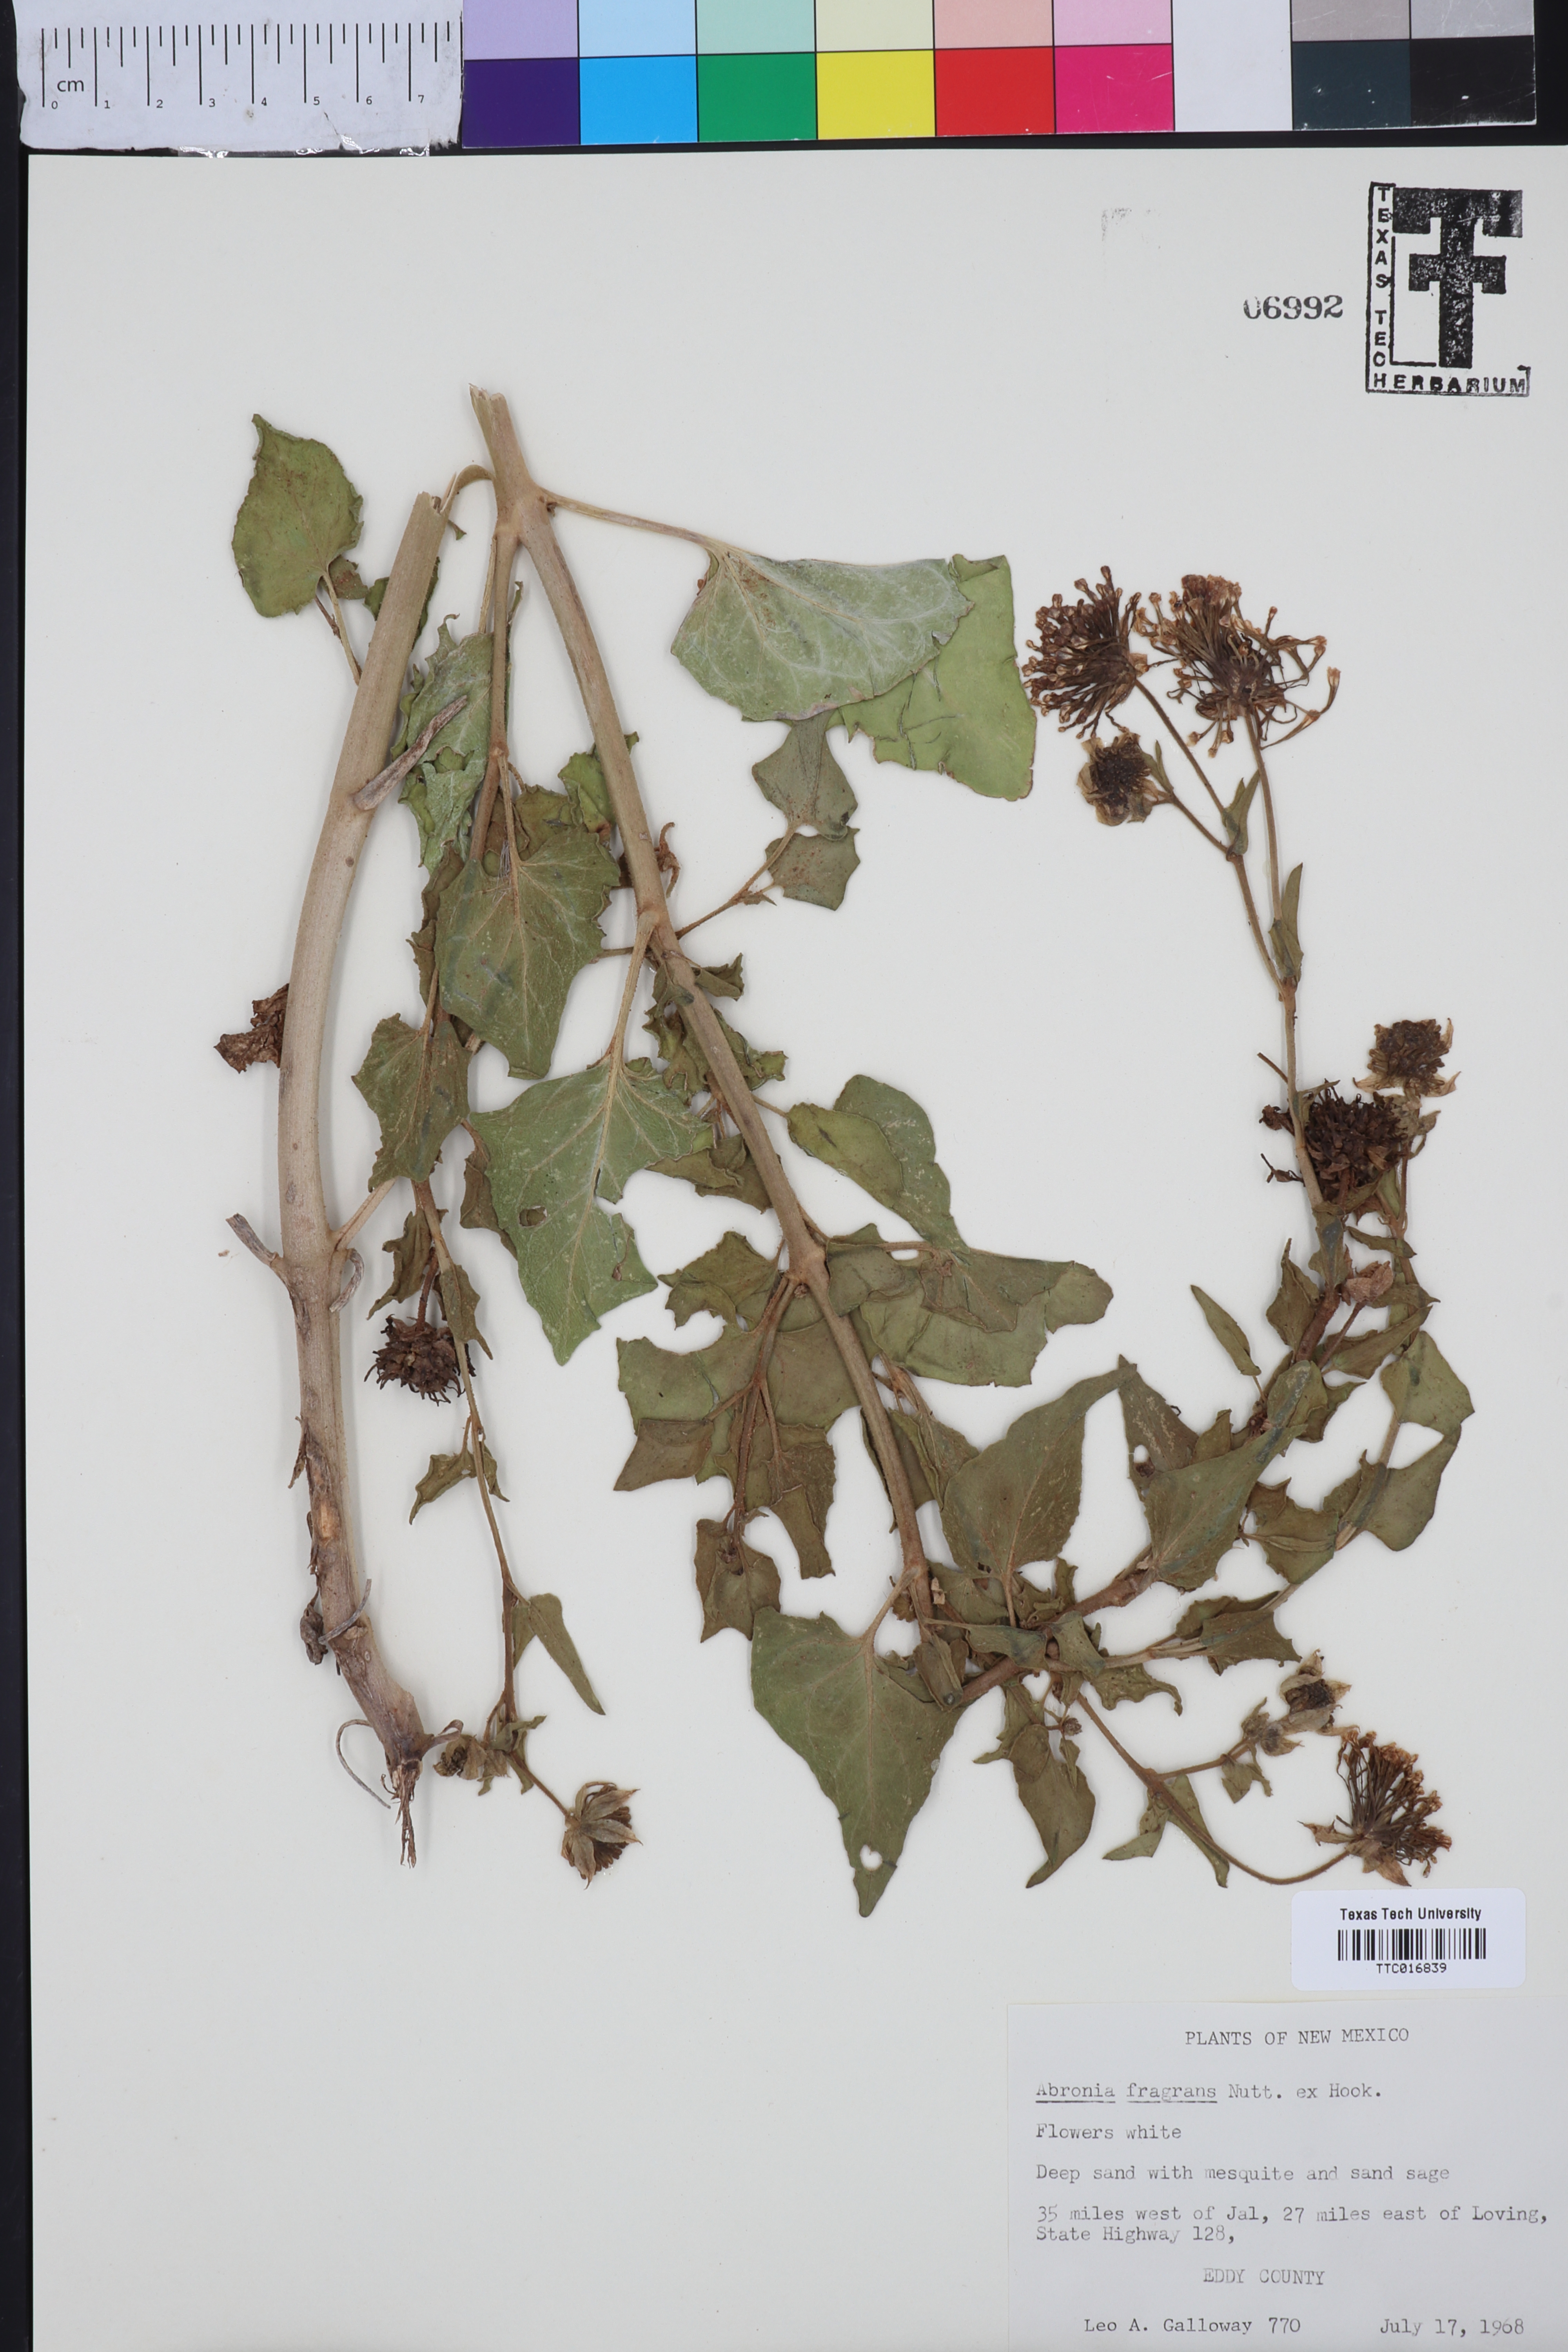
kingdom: Plantae
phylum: Tracheophyta
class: Magnoliopsida
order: Caryophyllales
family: Nyctaginaceae
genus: Abronia
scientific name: Abronia fragrans
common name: Fragrant sand-verbena
